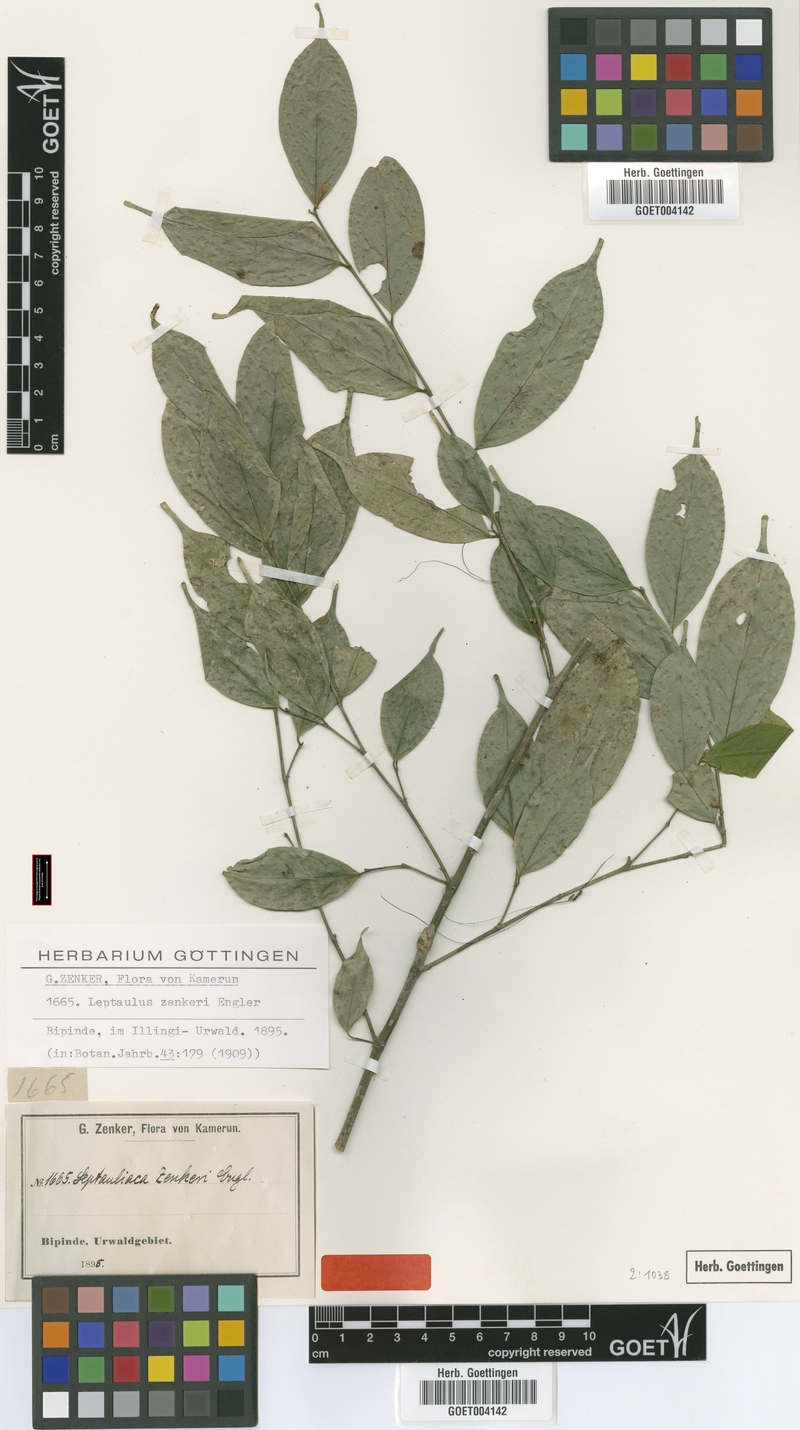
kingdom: Plantae
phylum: Tracheophyta
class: Magnoliopsida
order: Cardiopteridales
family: Cardiopteridaceae
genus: Leptaulus
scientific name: Leptaulus congolanus
